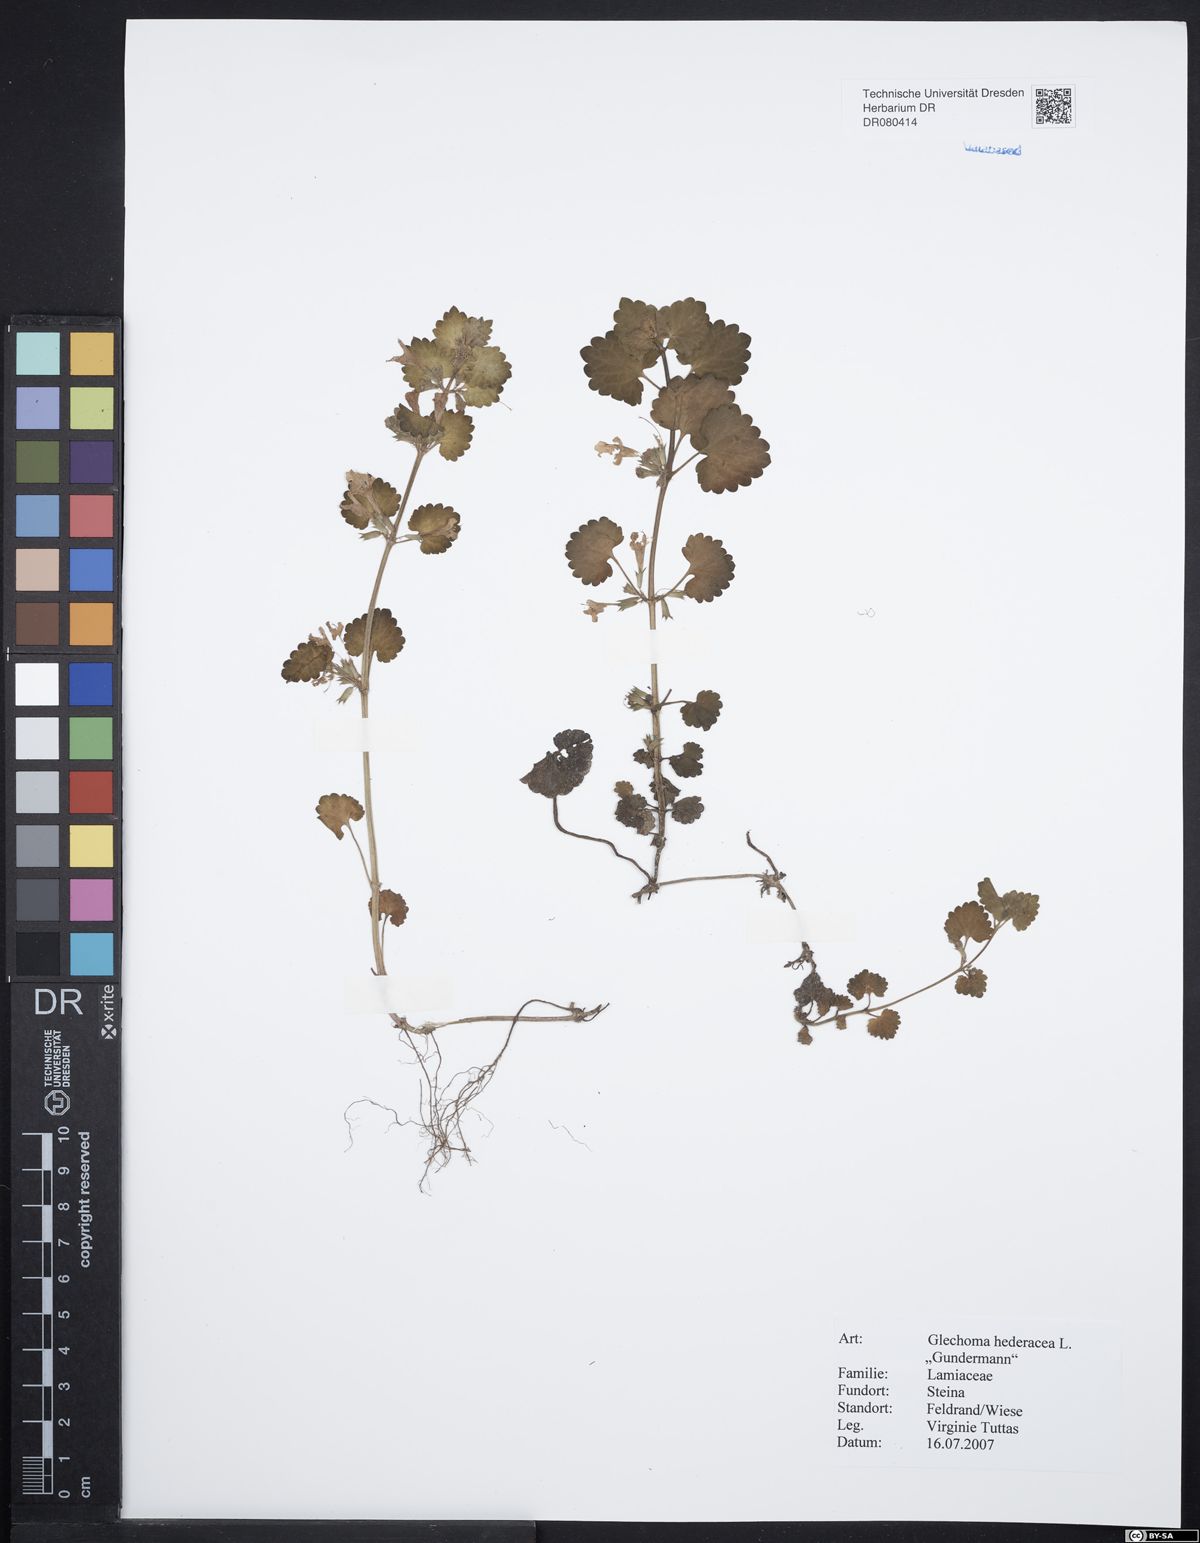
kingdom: Plantae
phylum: Tracheophyta
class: Magnoliopsida
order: Lamiales
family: Lamiaceae
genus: Glechoma
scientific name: Glechoma hederacea
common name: Ground ivy
